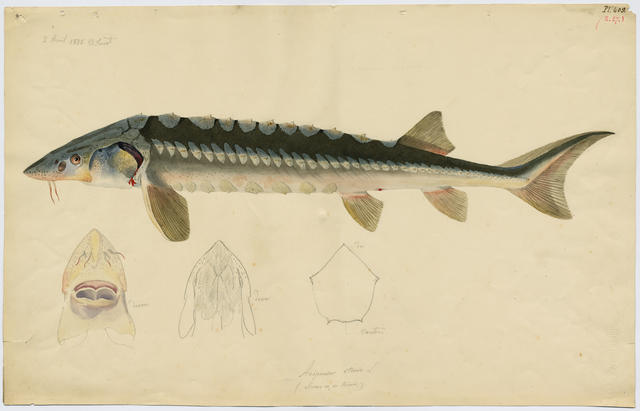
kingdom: Animalia
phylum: Chordata
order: Acipenseriformes
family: Acipenseridae
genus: Acipenser
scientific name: Acipenser sturio
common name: Sturgeon
